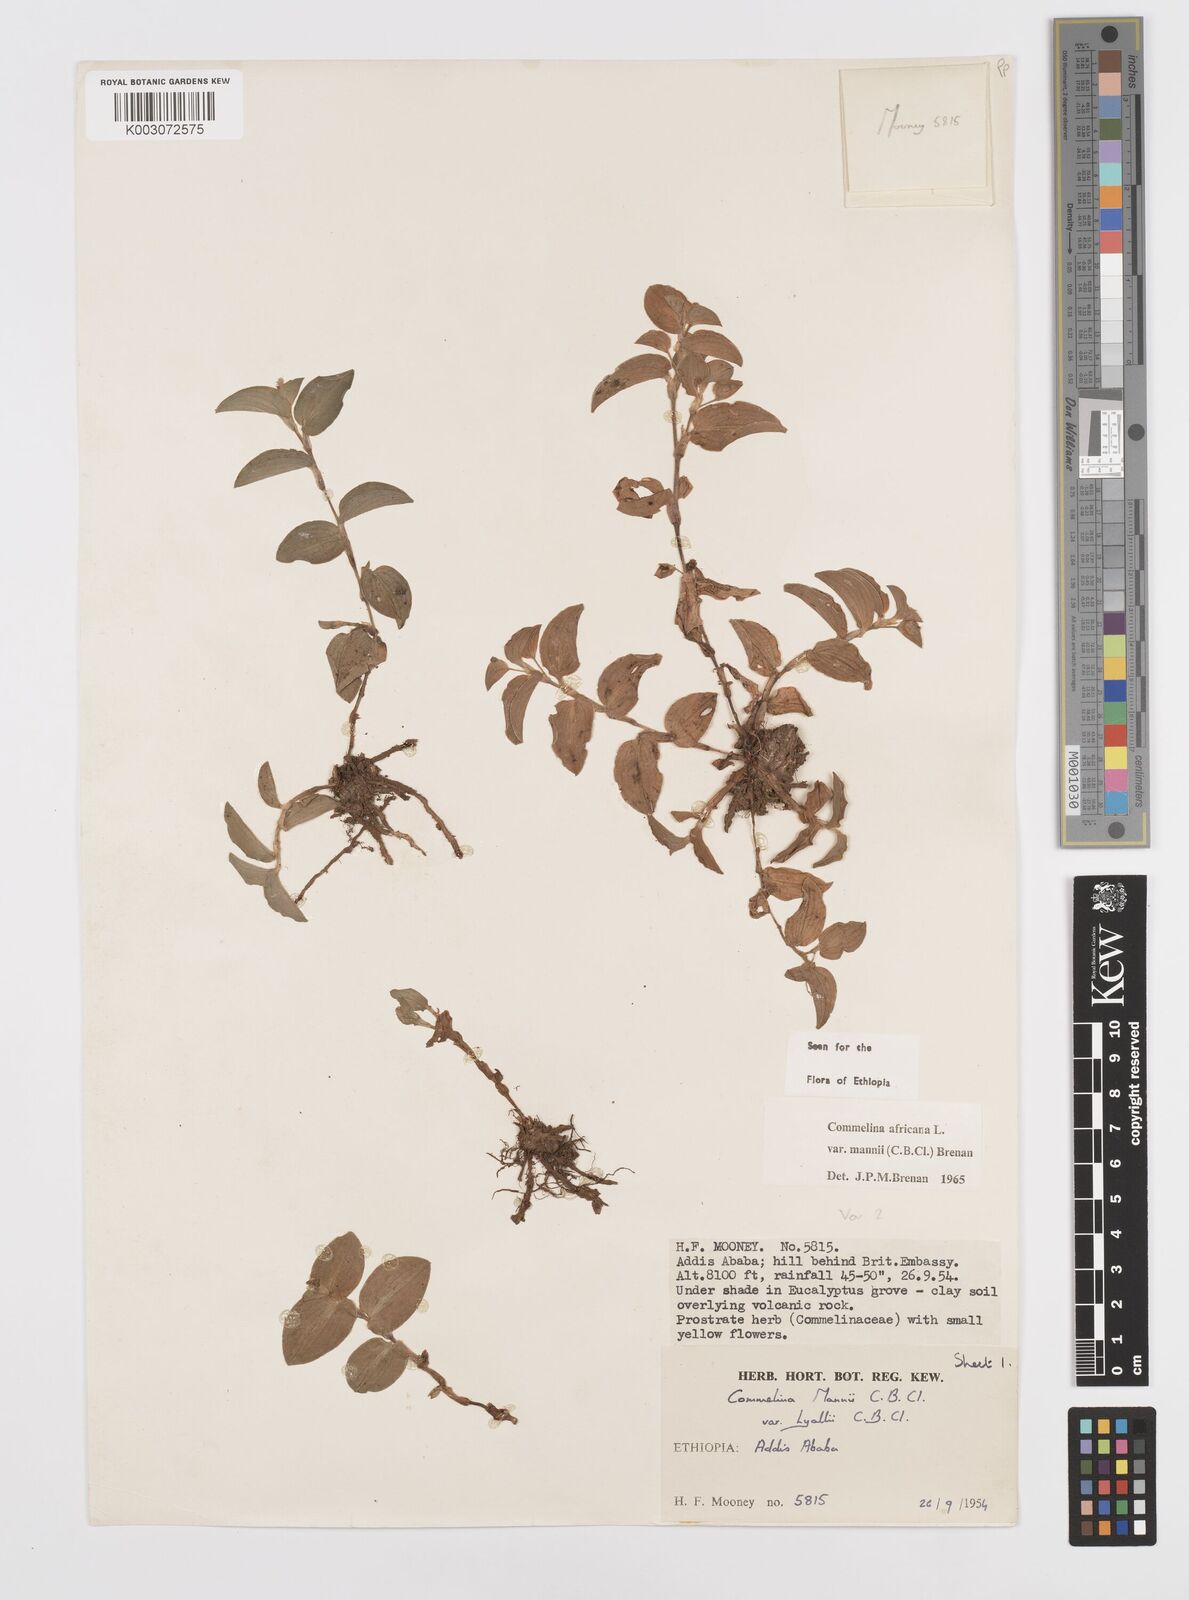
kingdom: Plantae
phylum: Tracheophyta
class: Liliopsida
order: Commelinales
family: Commelinaceae
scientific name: Commelinaceae
